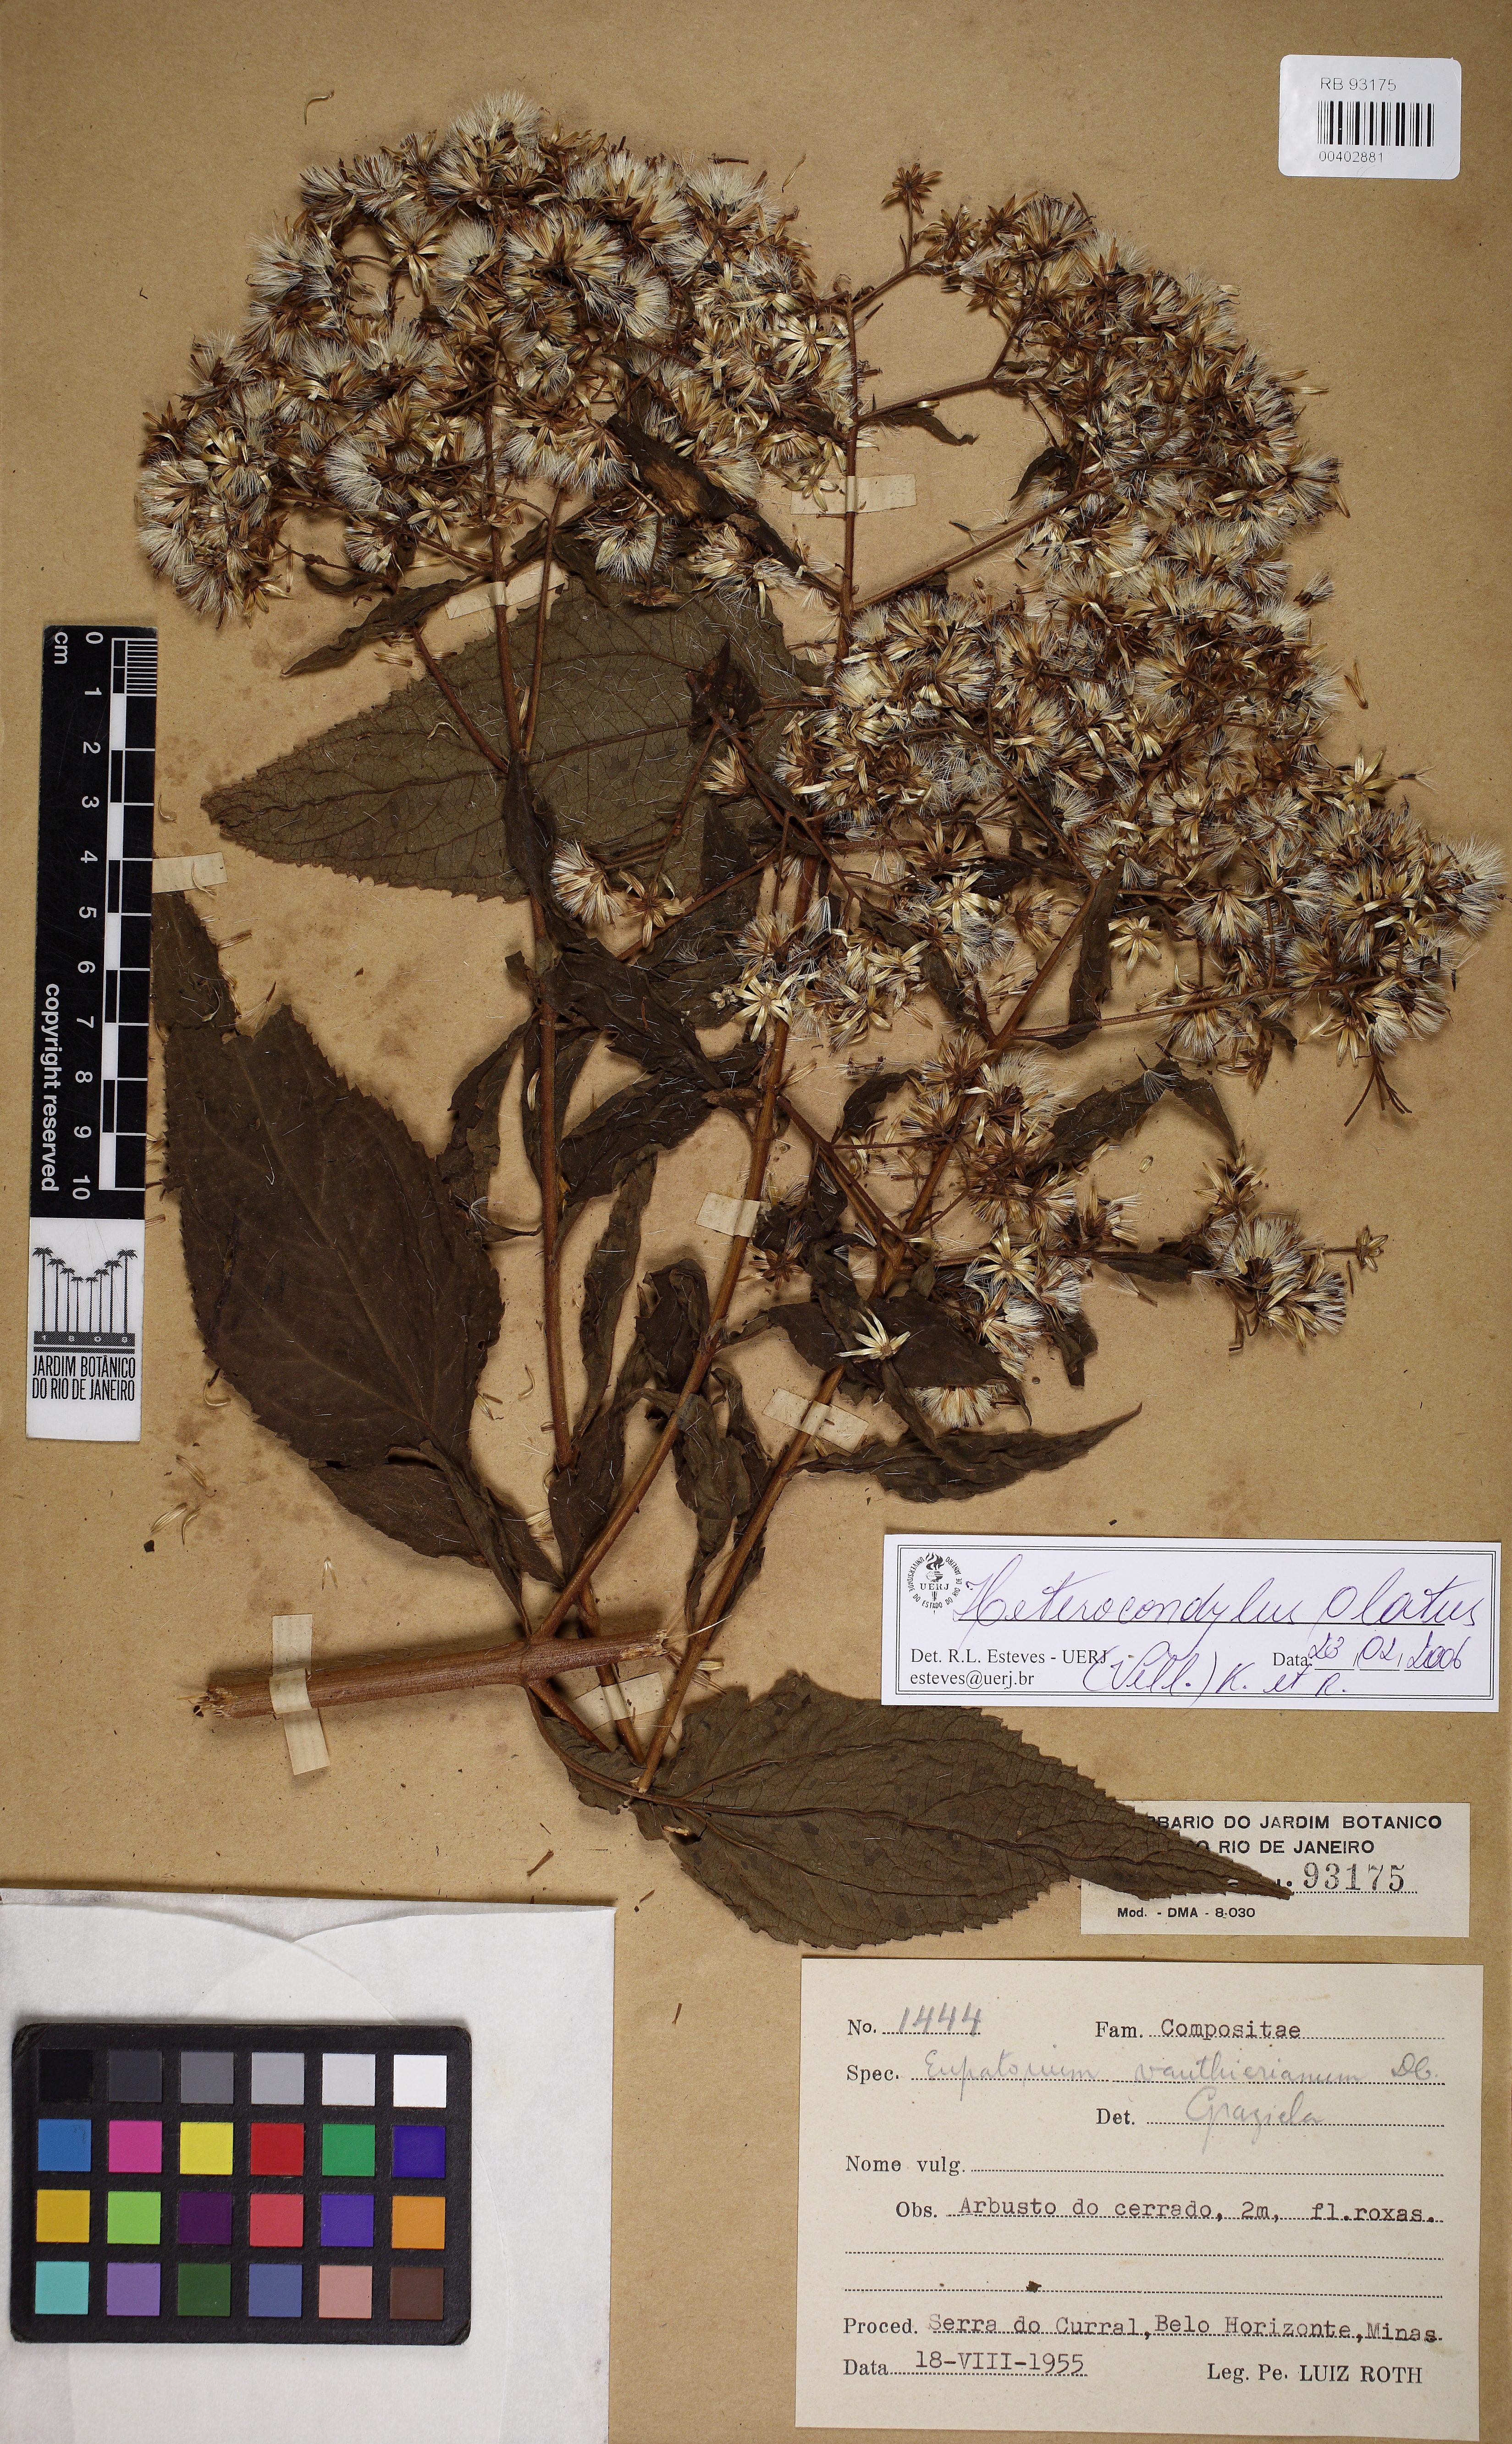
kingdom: Plantae
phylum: Tracheophyta
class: Magnoliopsida
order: Asterales
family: Asteraceae
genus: Heterocondylus
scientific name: Heterocondylus alatus
